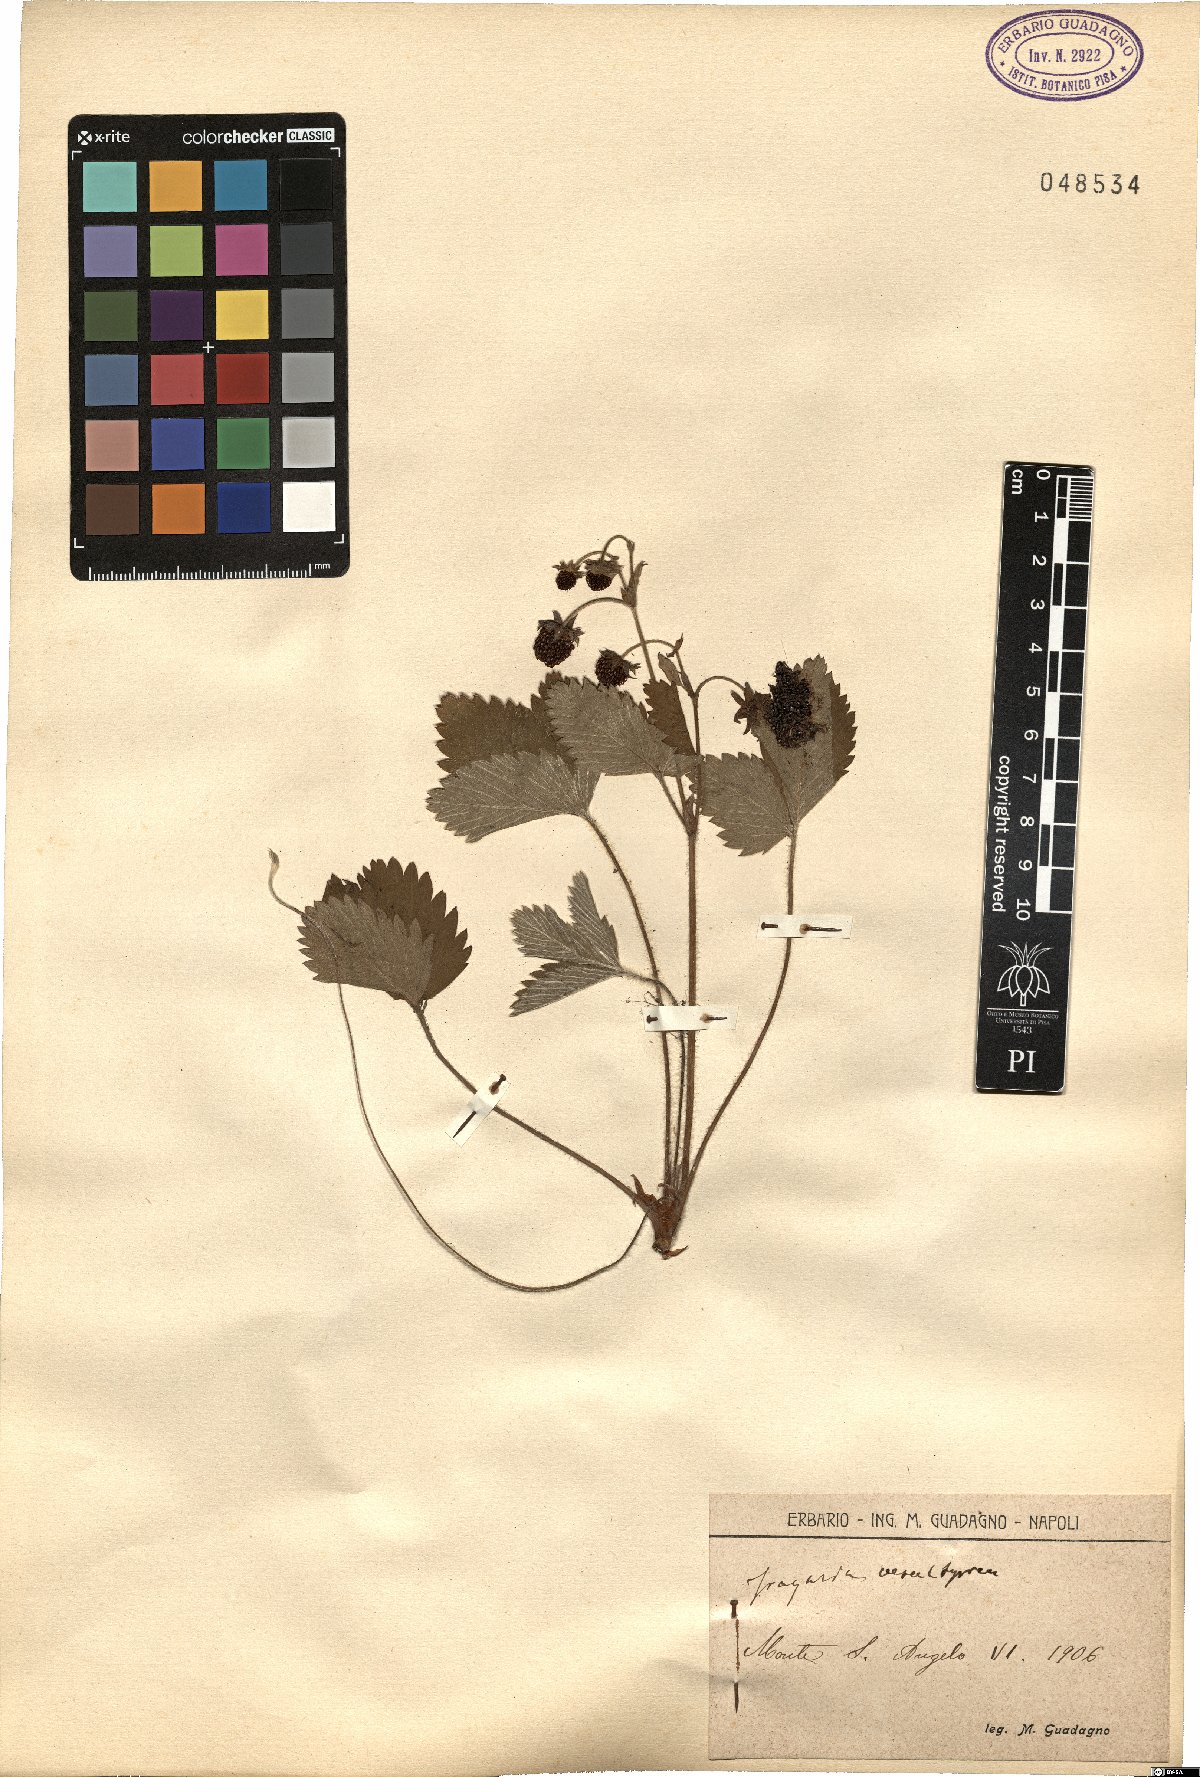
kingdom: Plantae
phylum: Tracheophyta
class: Magnoliopsida
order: Rosales
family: Rosaceae
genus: Fragaria
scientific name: Fragaria vesca
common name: Wild strawberry
